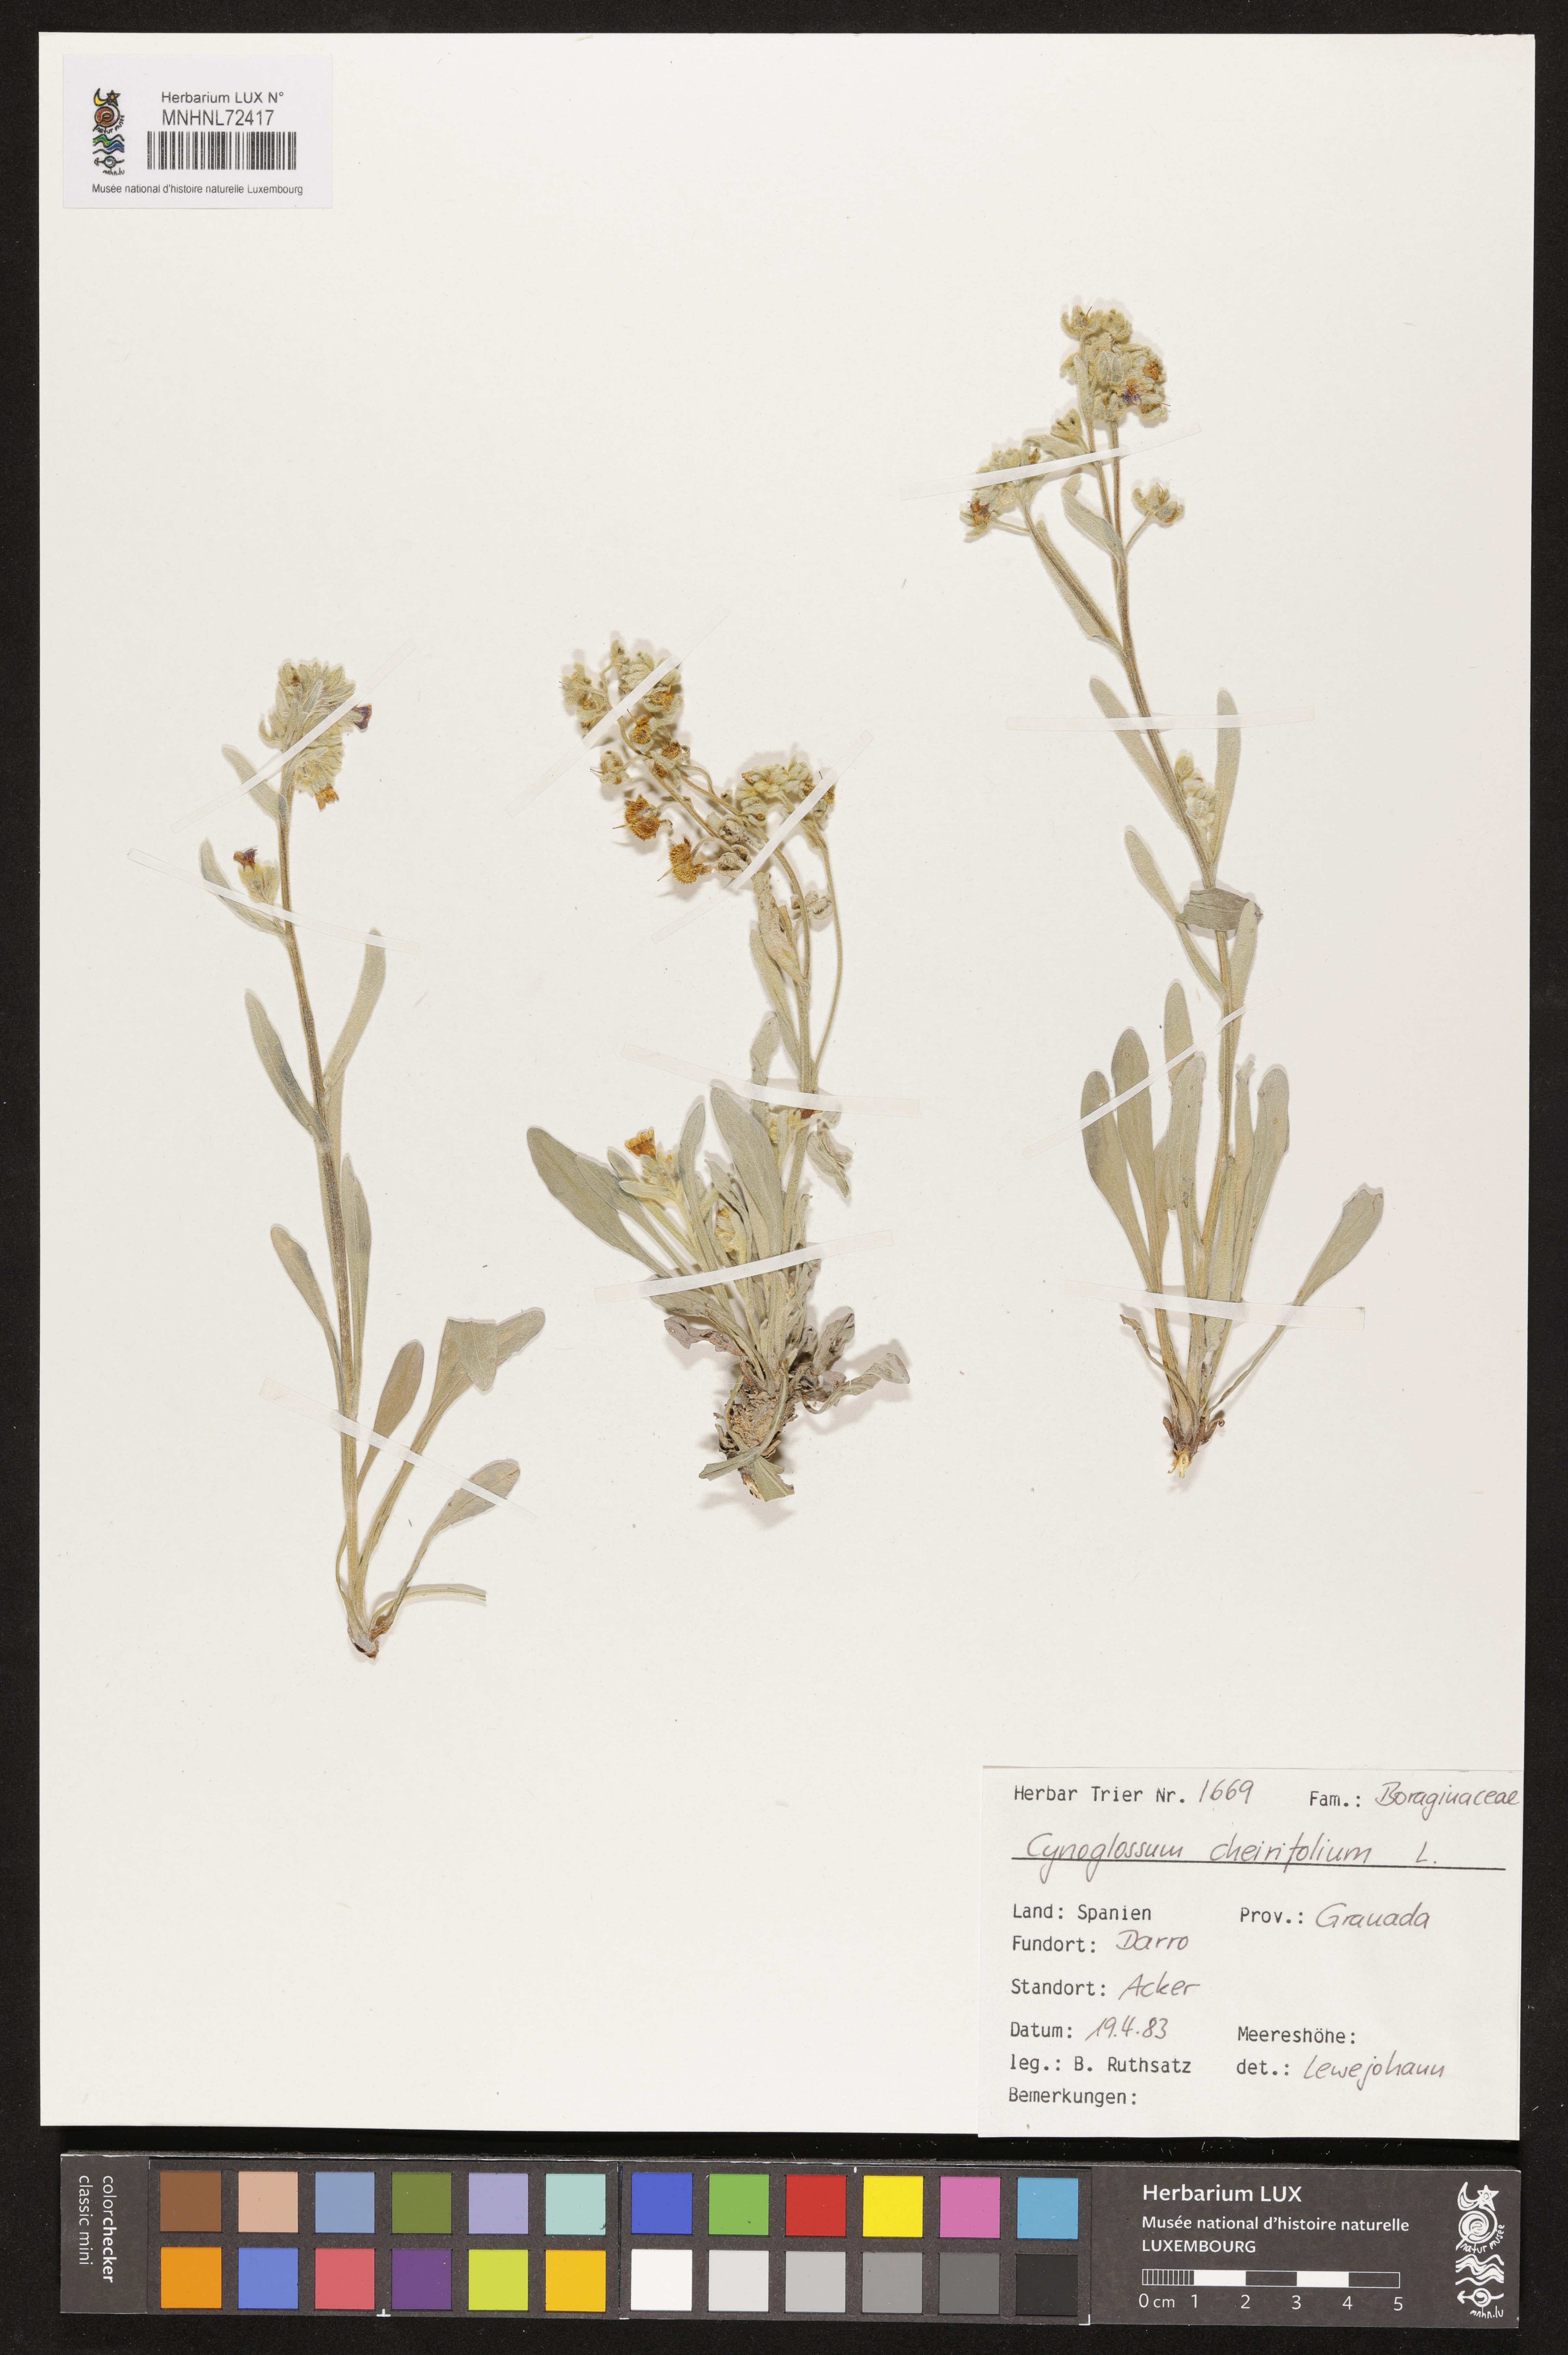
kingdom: Plantae
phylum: Tracheophyta
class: Magnoliopsida
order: Boraginales
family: Boraginaceae
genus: Pardoglossum
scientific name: Pardoglossum cheirifolium
